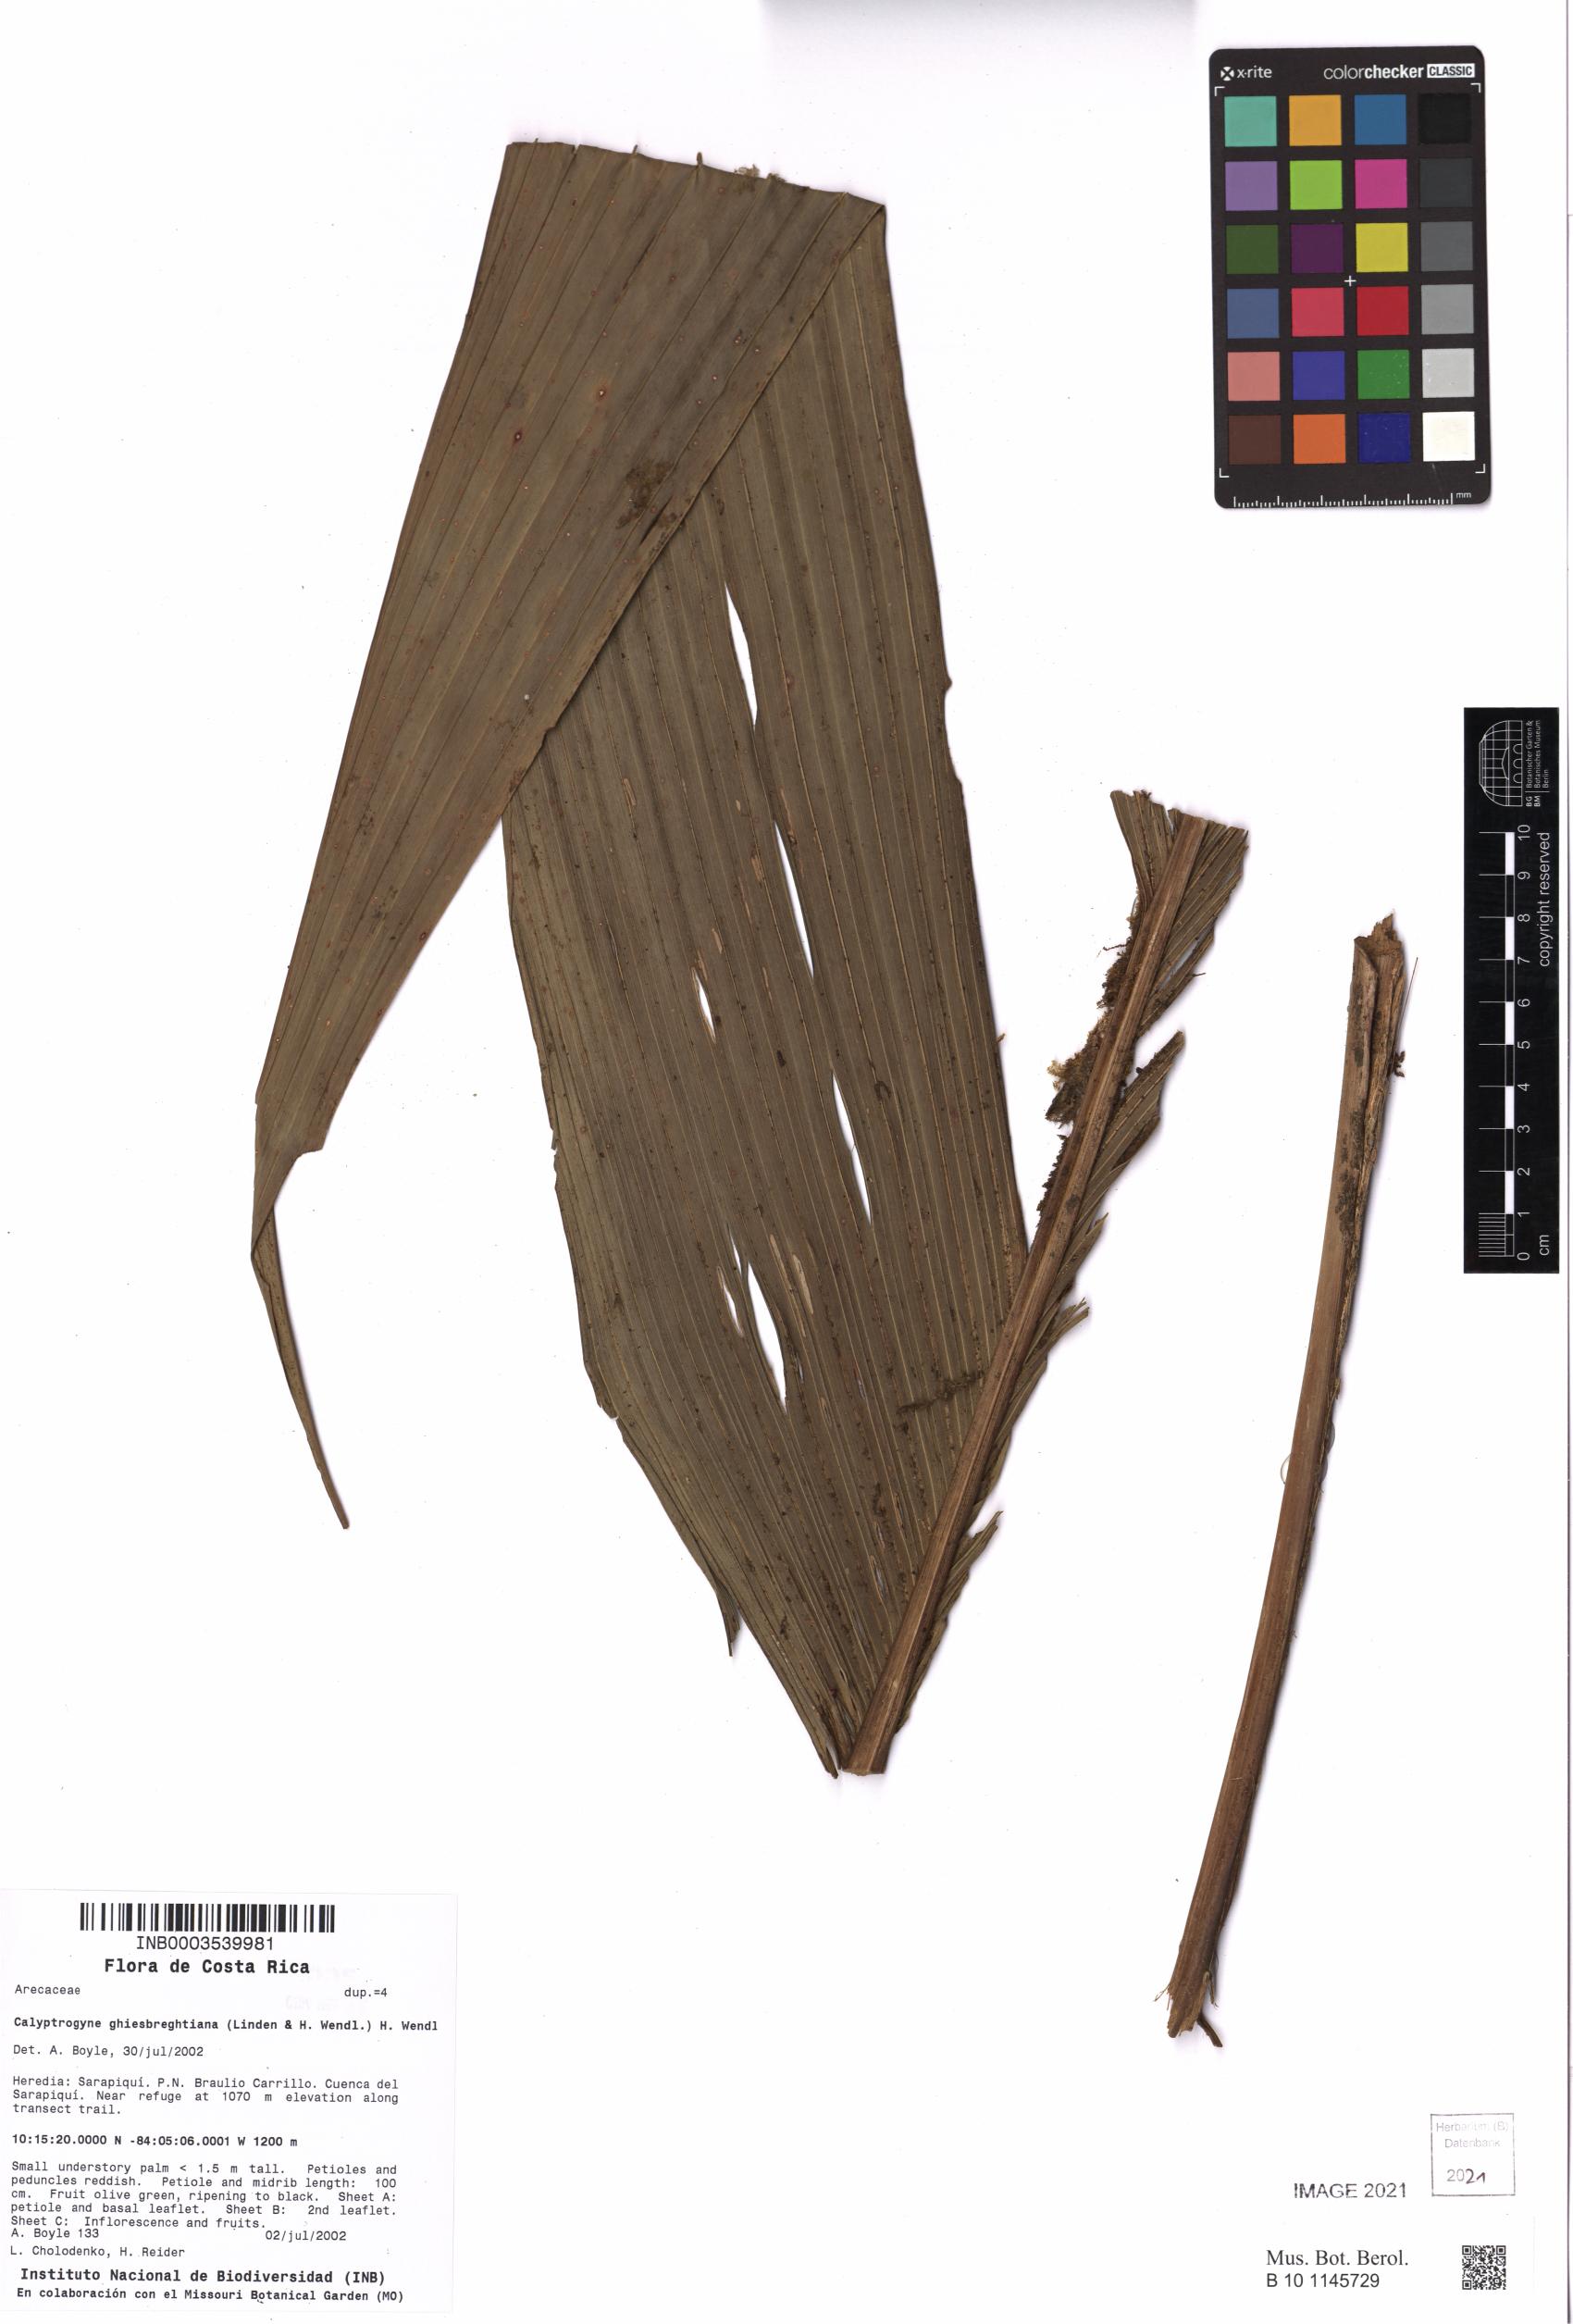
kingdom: Plantae
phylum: Tracheophyta
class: Liliopsida
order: Arecales
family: Arecaceae
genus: Calyptrogyne
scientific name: Calyptrogyne ghiesbreghtiana
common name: Coligallo
